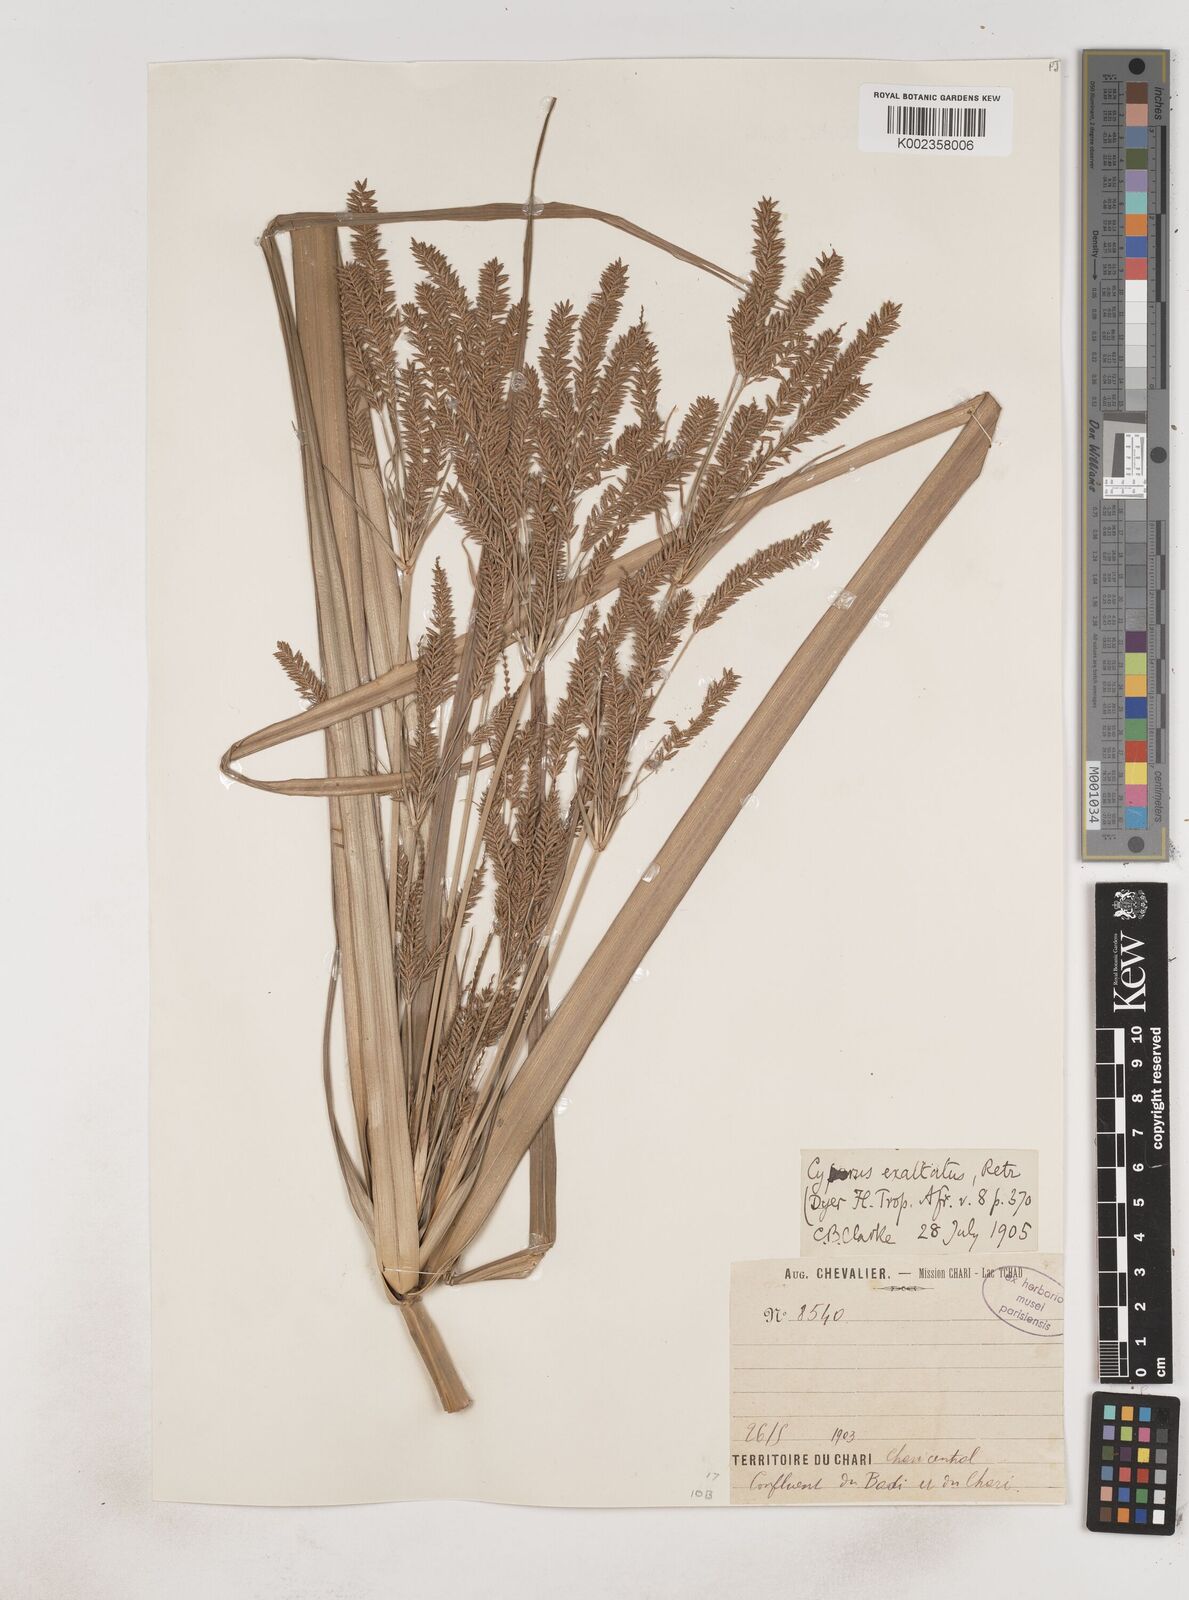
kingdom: Plantae
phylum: Tracheophyta
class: Liliopsida
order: Poales
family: Cyperaceae
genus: Cyperus
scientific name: Cyperus exaltatus
